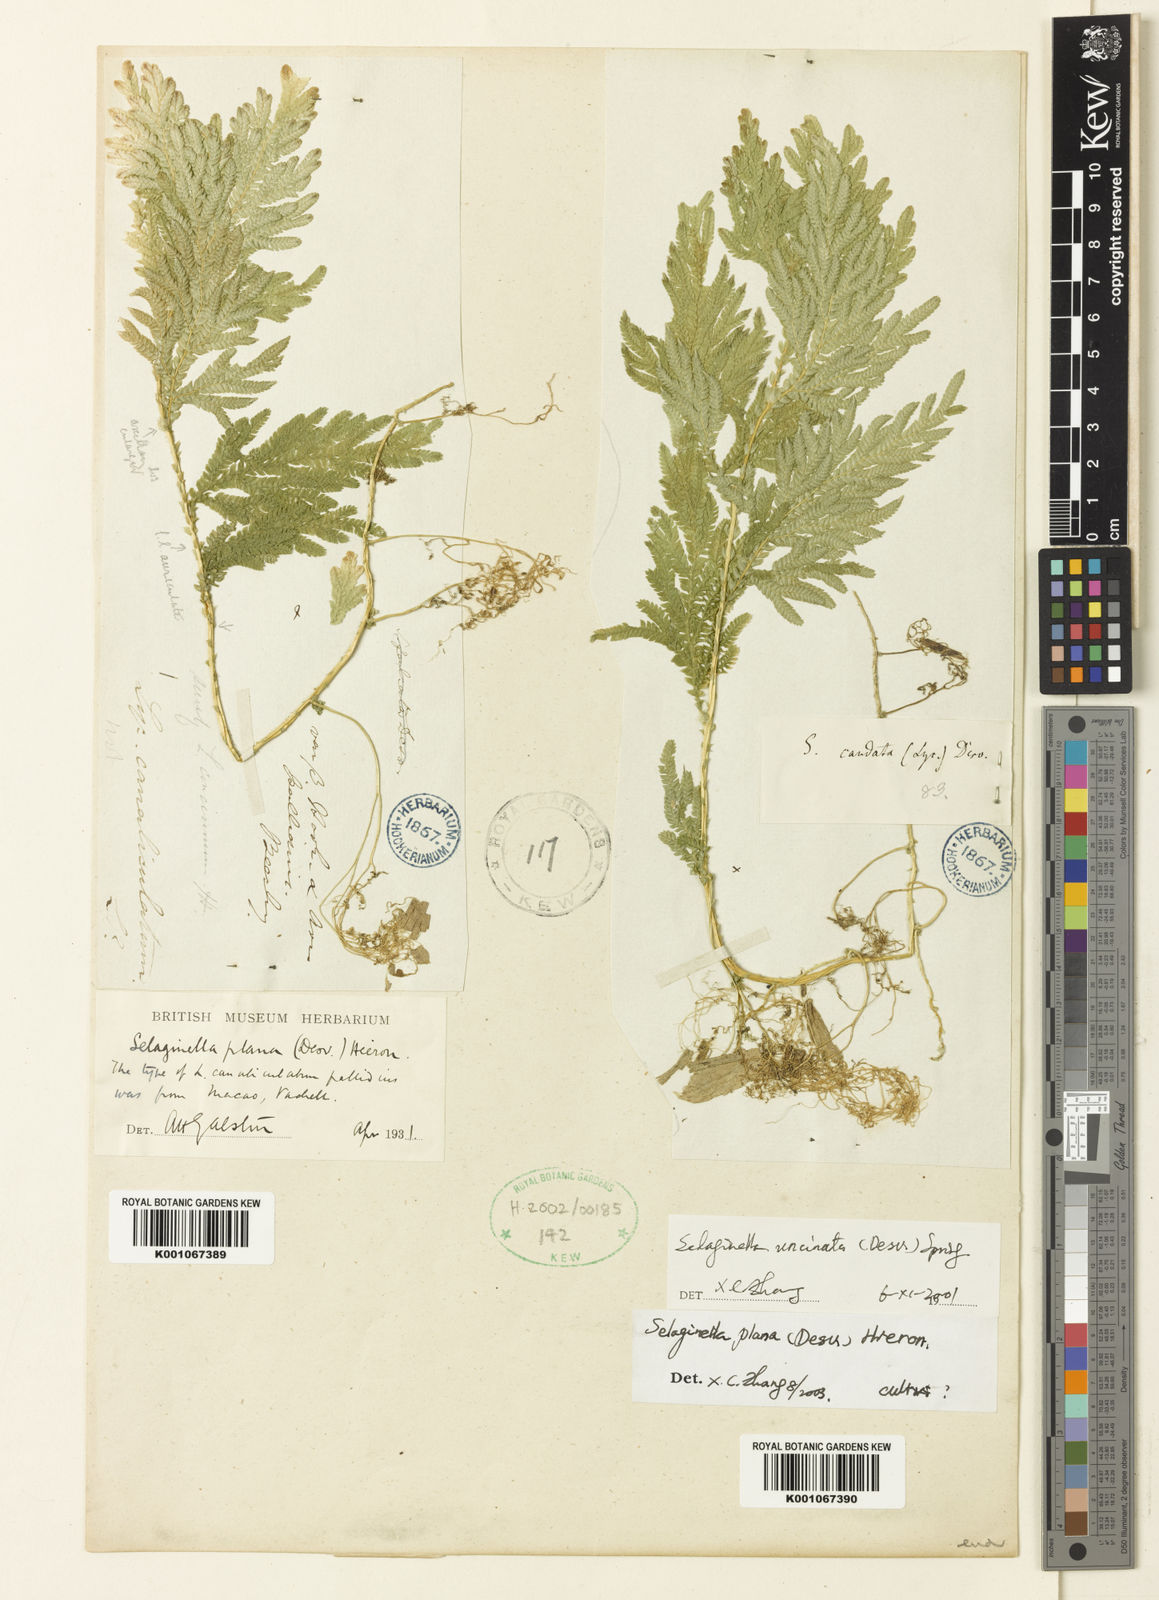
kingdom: Plantae
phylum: Tracheophyta
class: Lycopodiopsida
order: Selaginellales
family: Selaginellaceae
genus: Selaginella
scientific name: Selaginella plana
